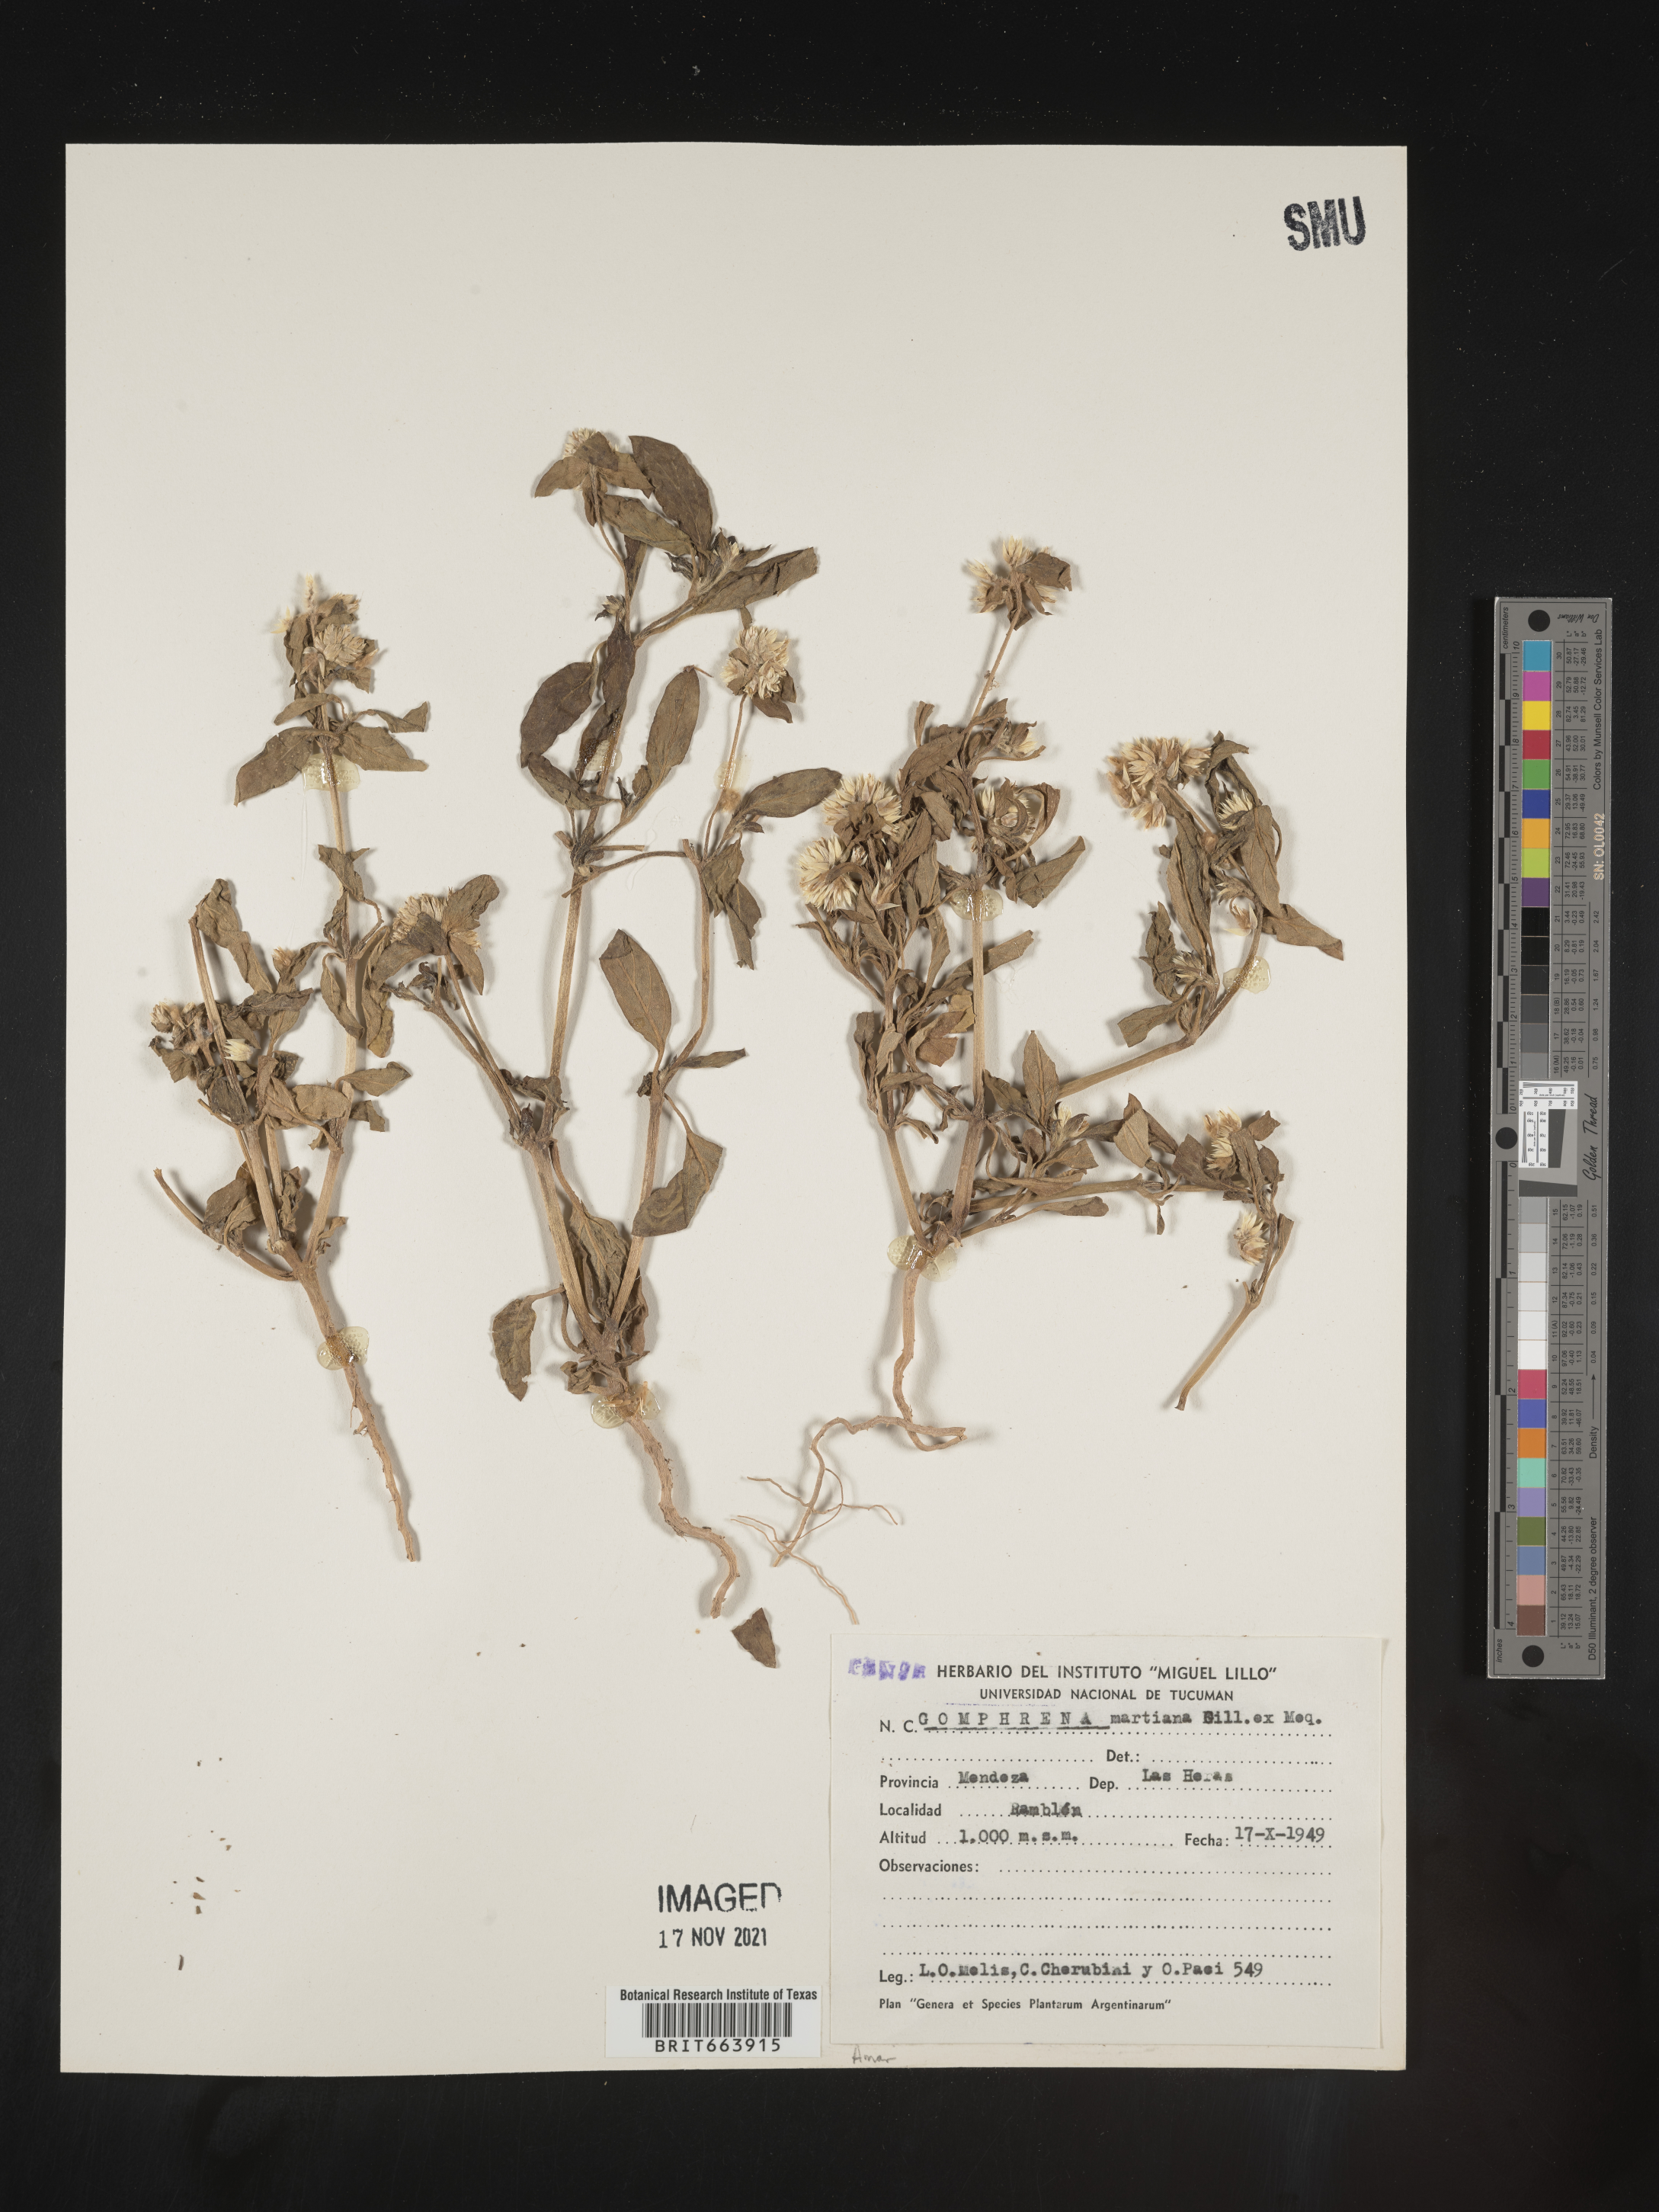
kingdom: Plantae
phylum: Tracheophyta
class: Magnoliopsida
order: Caryophyllales
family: Amaranthaceae
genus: Gomphrena
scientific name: Gomphrena
